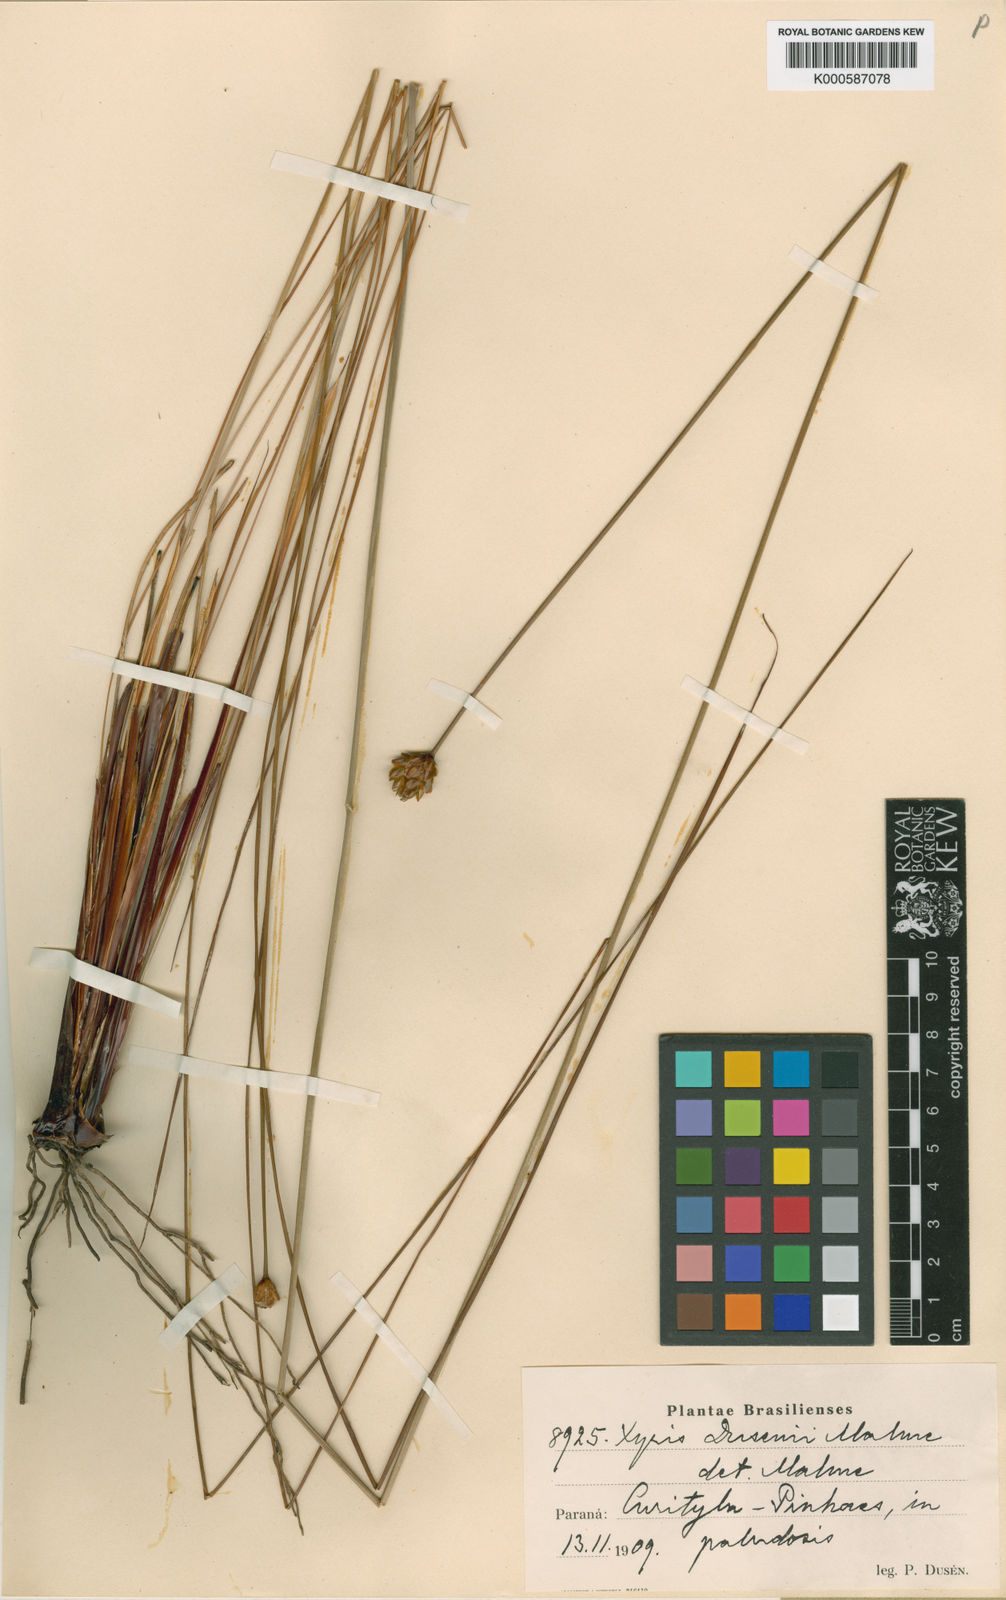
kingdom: Plantae
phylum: Tracheophyta
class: Liliopsida
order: Poales
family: Xyridaceae
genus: Xyris
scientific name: Xyris neglecta
